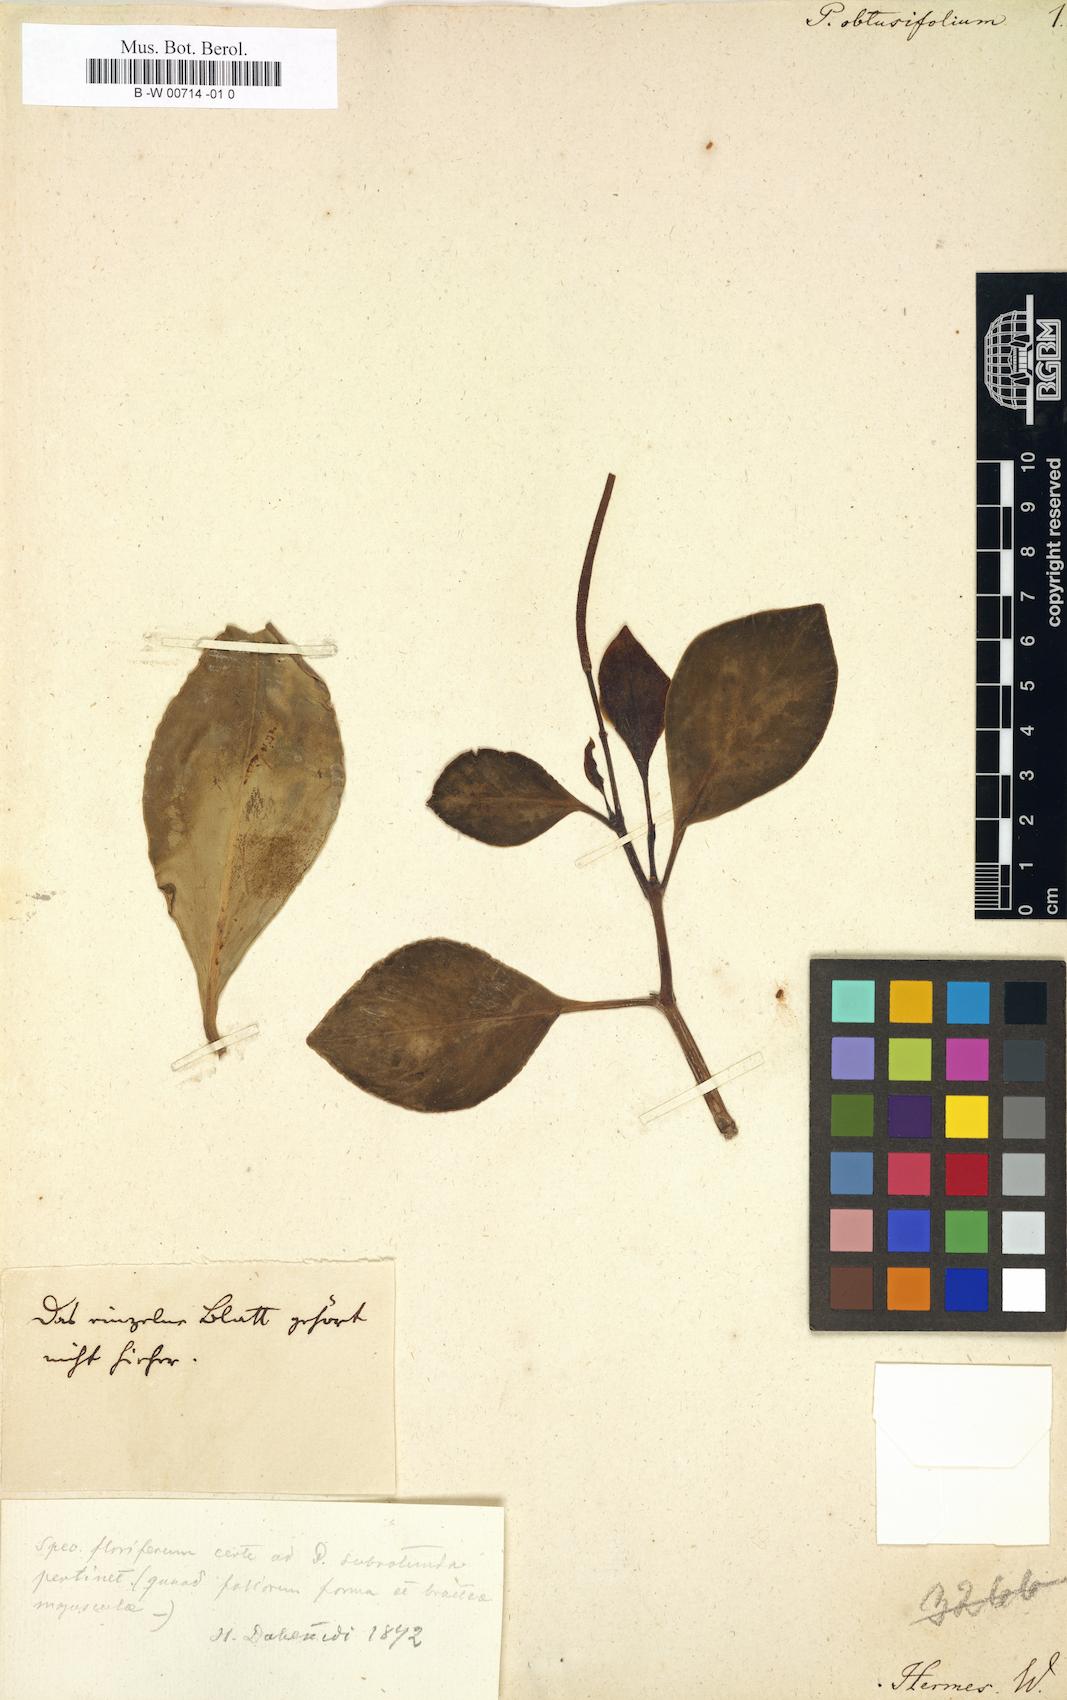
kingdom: Plantae
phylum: Tracheophyta
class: Magnoliopsida
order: Piperales
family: Piperaceae
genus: Peperomia
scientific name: Peperomia obtusifolia
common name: Baby rubberplant
